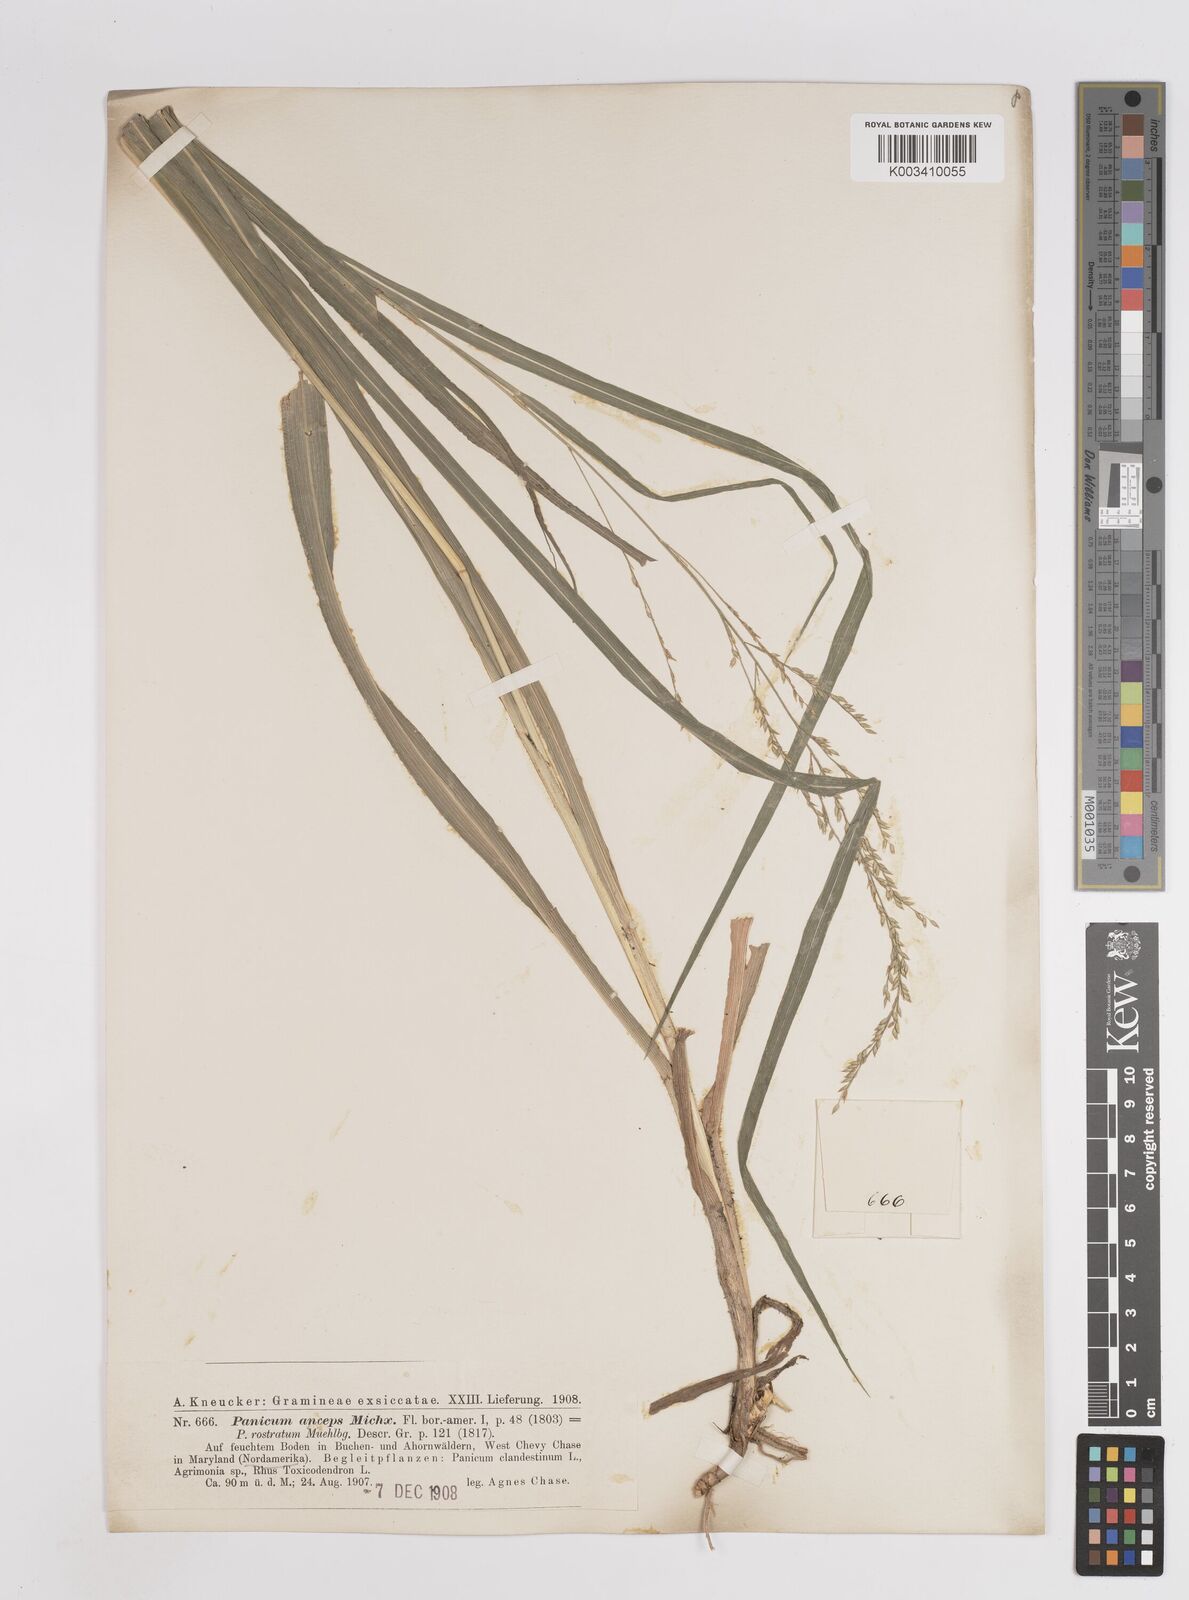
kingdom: Plantae
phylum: Tracheophyta
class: Liliopsida
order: Poales
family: Poaceae
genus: Coleataenia
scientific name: Coleataenia anceps
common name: Beaked panic grass
